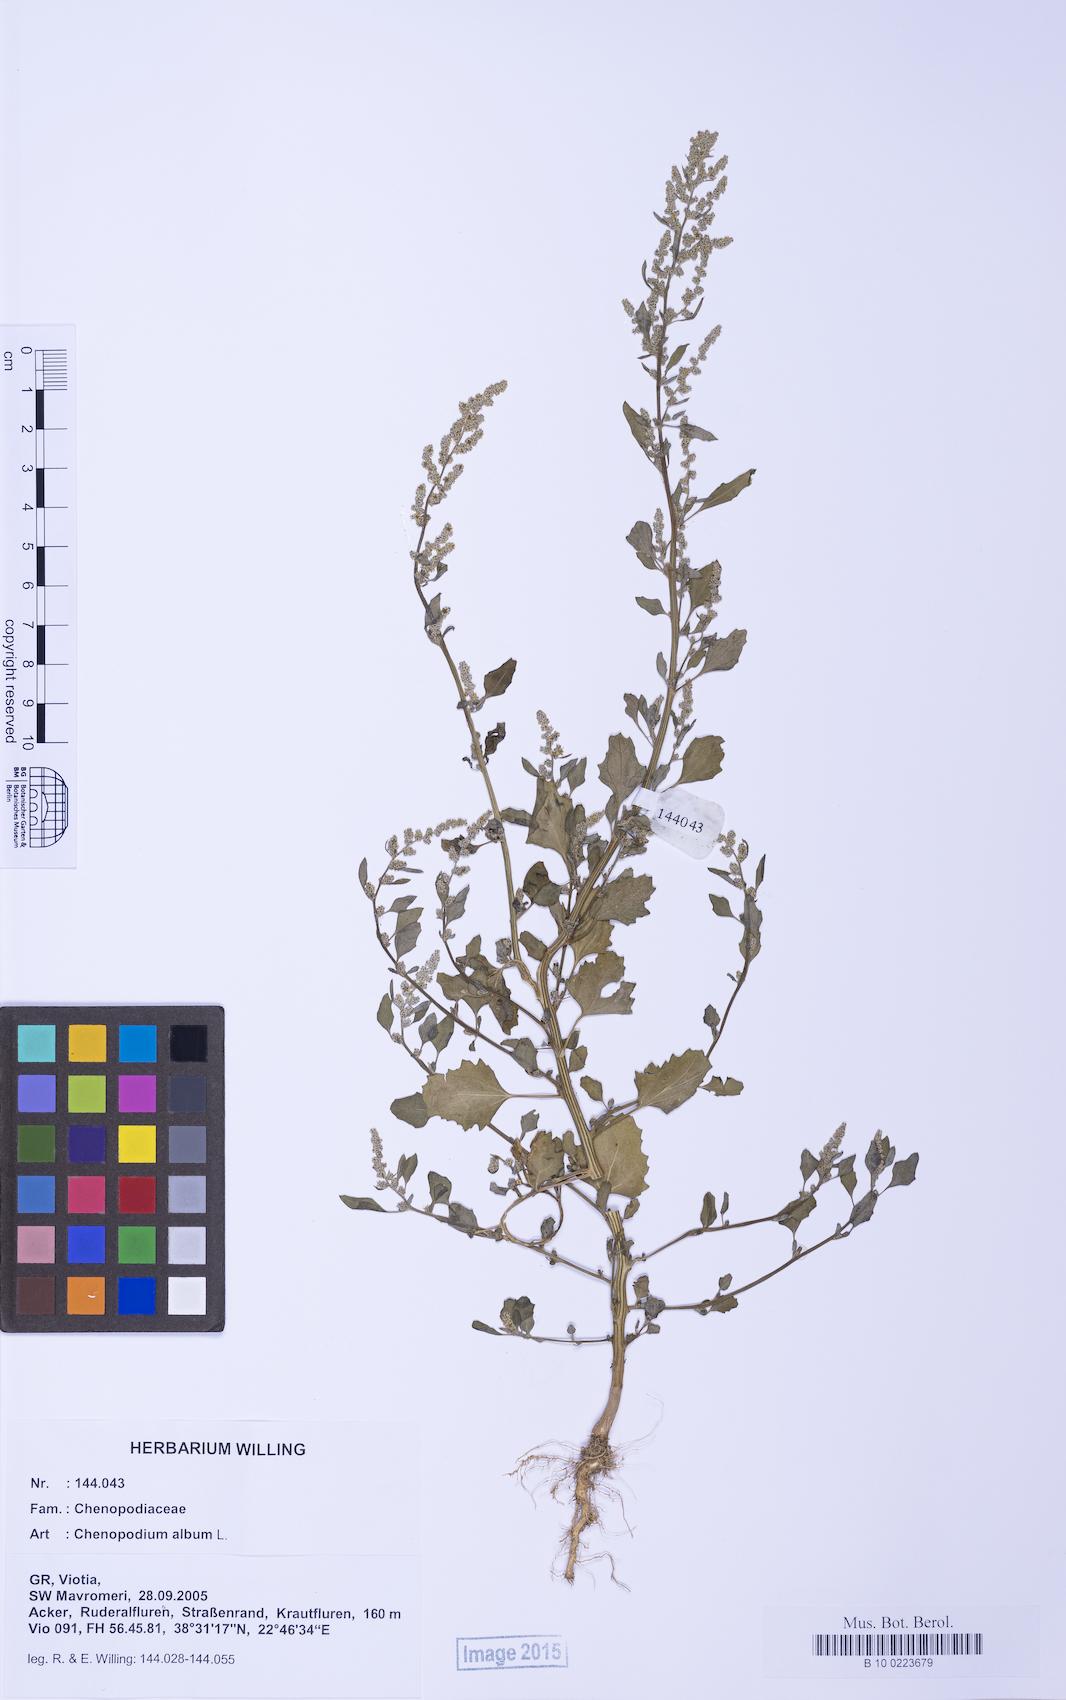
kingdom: Plantae
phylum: Tracheophyta
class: Magnoliopsida
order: Caryophyllales
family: Amaranthaceae
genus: Chenopodium
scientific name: Chenopodium album
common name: Fat-hen
